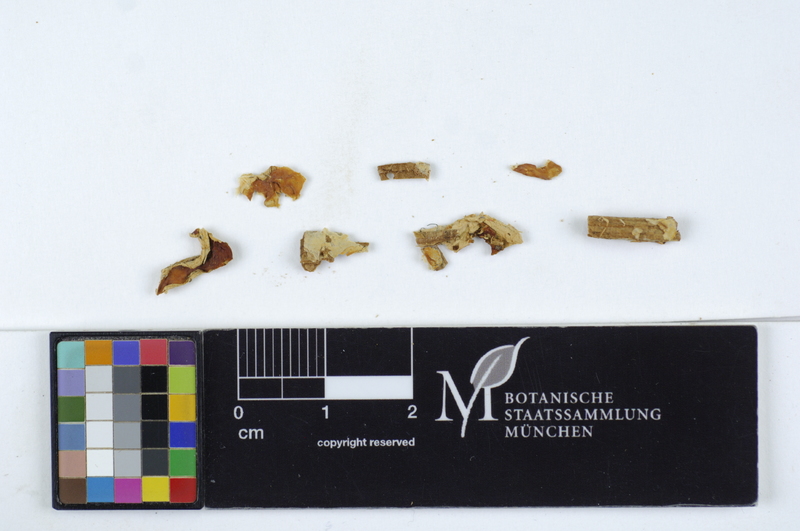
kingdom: Fungi
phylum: Basidiomycota
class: Agaricomycetes
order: Amylocorticiales
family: Amylocorticiaceae
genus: Ceraceomyces
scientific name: Ceraceomyces borealis
